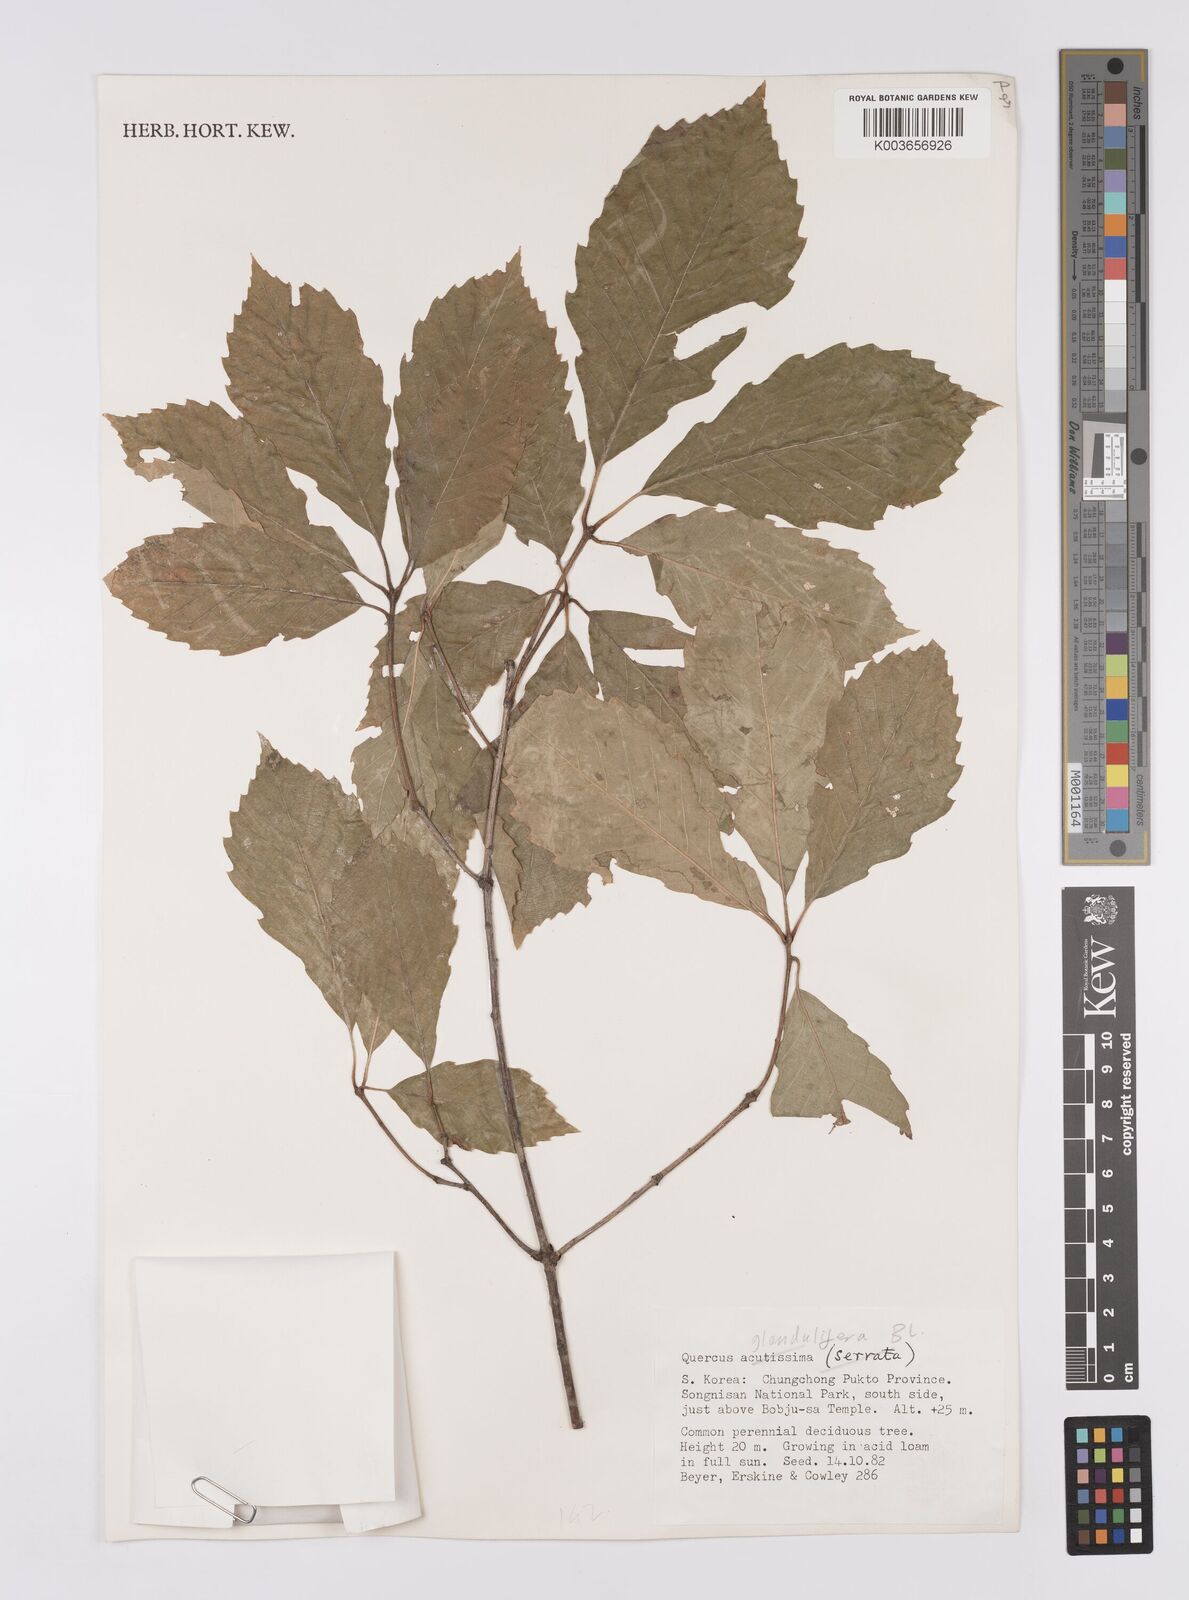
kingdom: Plantae
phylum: Tracheophyta
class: Magnoliopsida
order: Fagales
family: Fagaceae
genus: Quercus
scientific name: Quercus serrata
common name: Bao li
